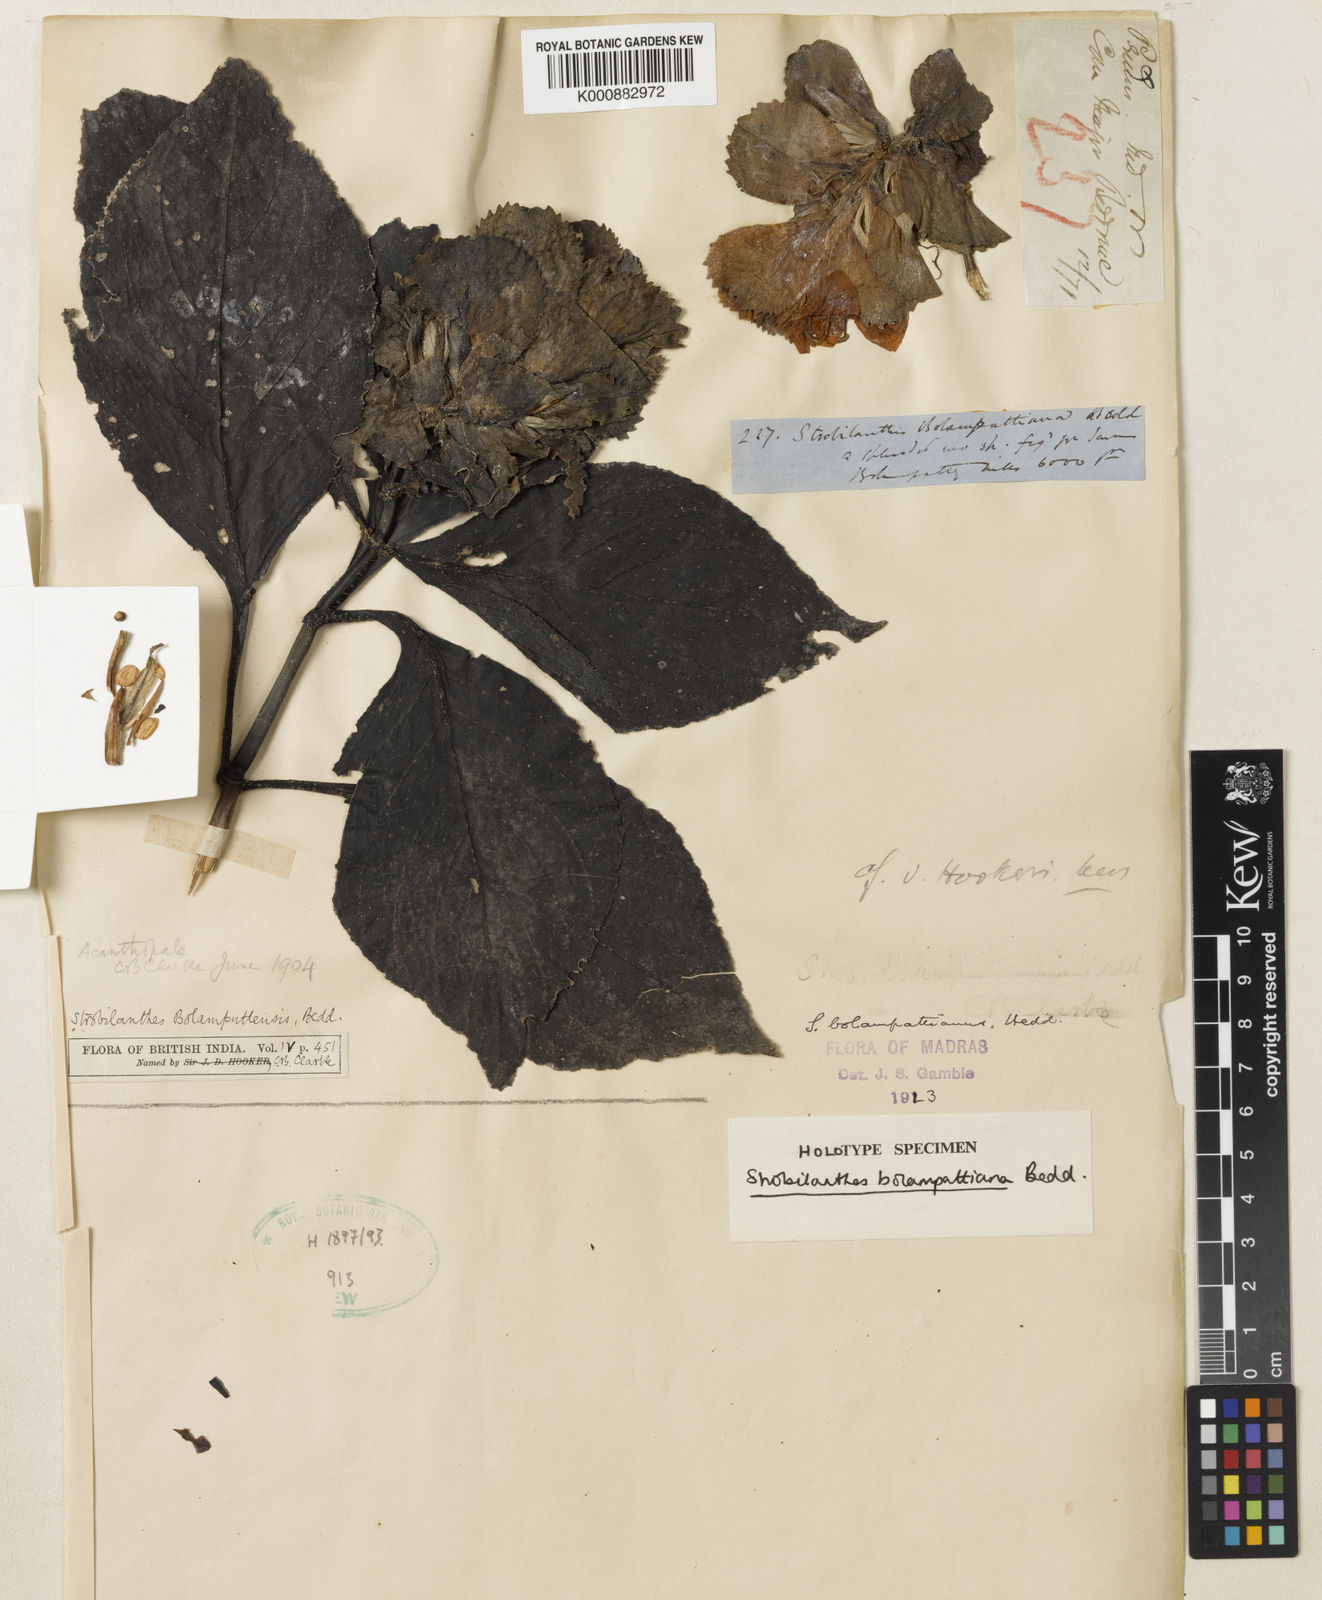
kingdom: Plantae
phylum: Tracheophyta
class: Magnoliopsida
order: Lamiales
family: Acanthaceae
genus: Strobilanthes
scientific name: Strobilanthes bolumpattiana
